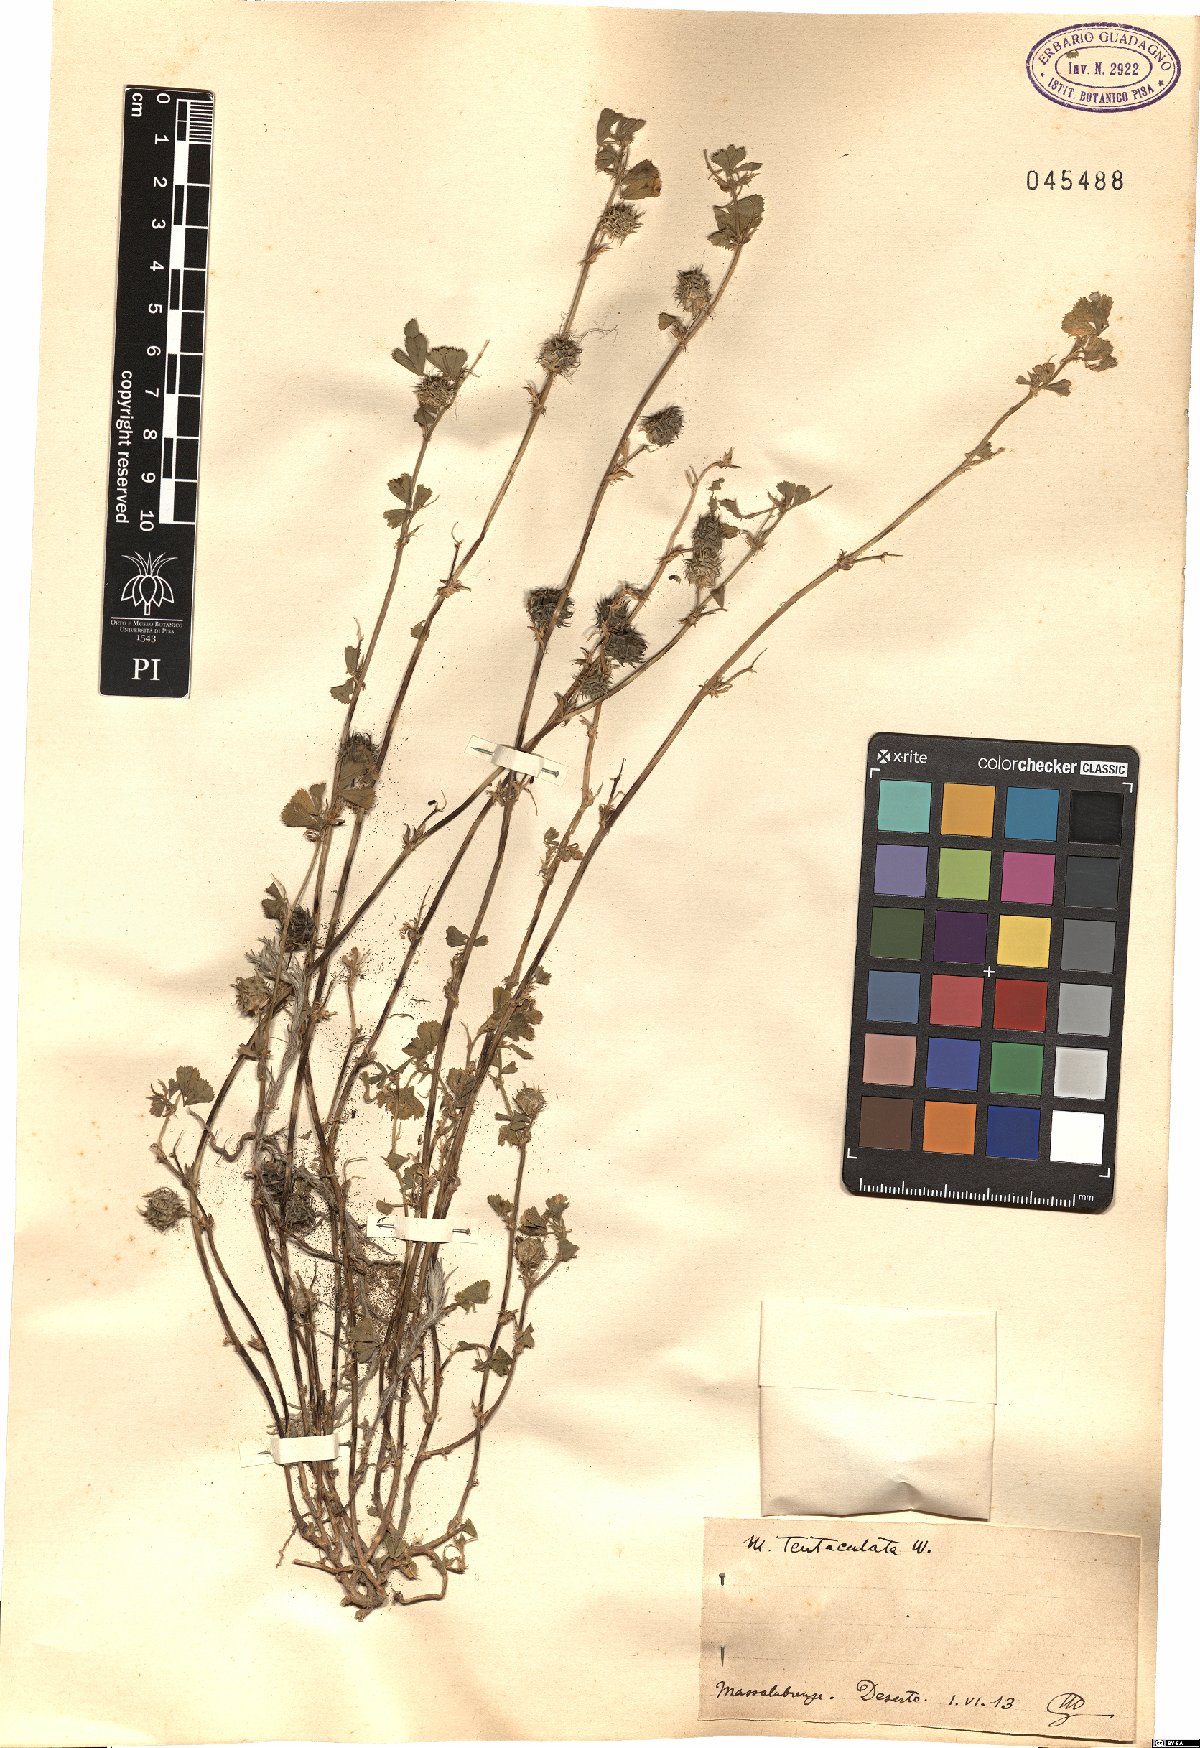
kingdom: Plantae
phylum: Tracheophyta
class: Magnoliopsida
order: Fabales
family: Fabaceae
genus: Medicago
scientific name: Medicago truncatula
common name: Strong-spined medick
